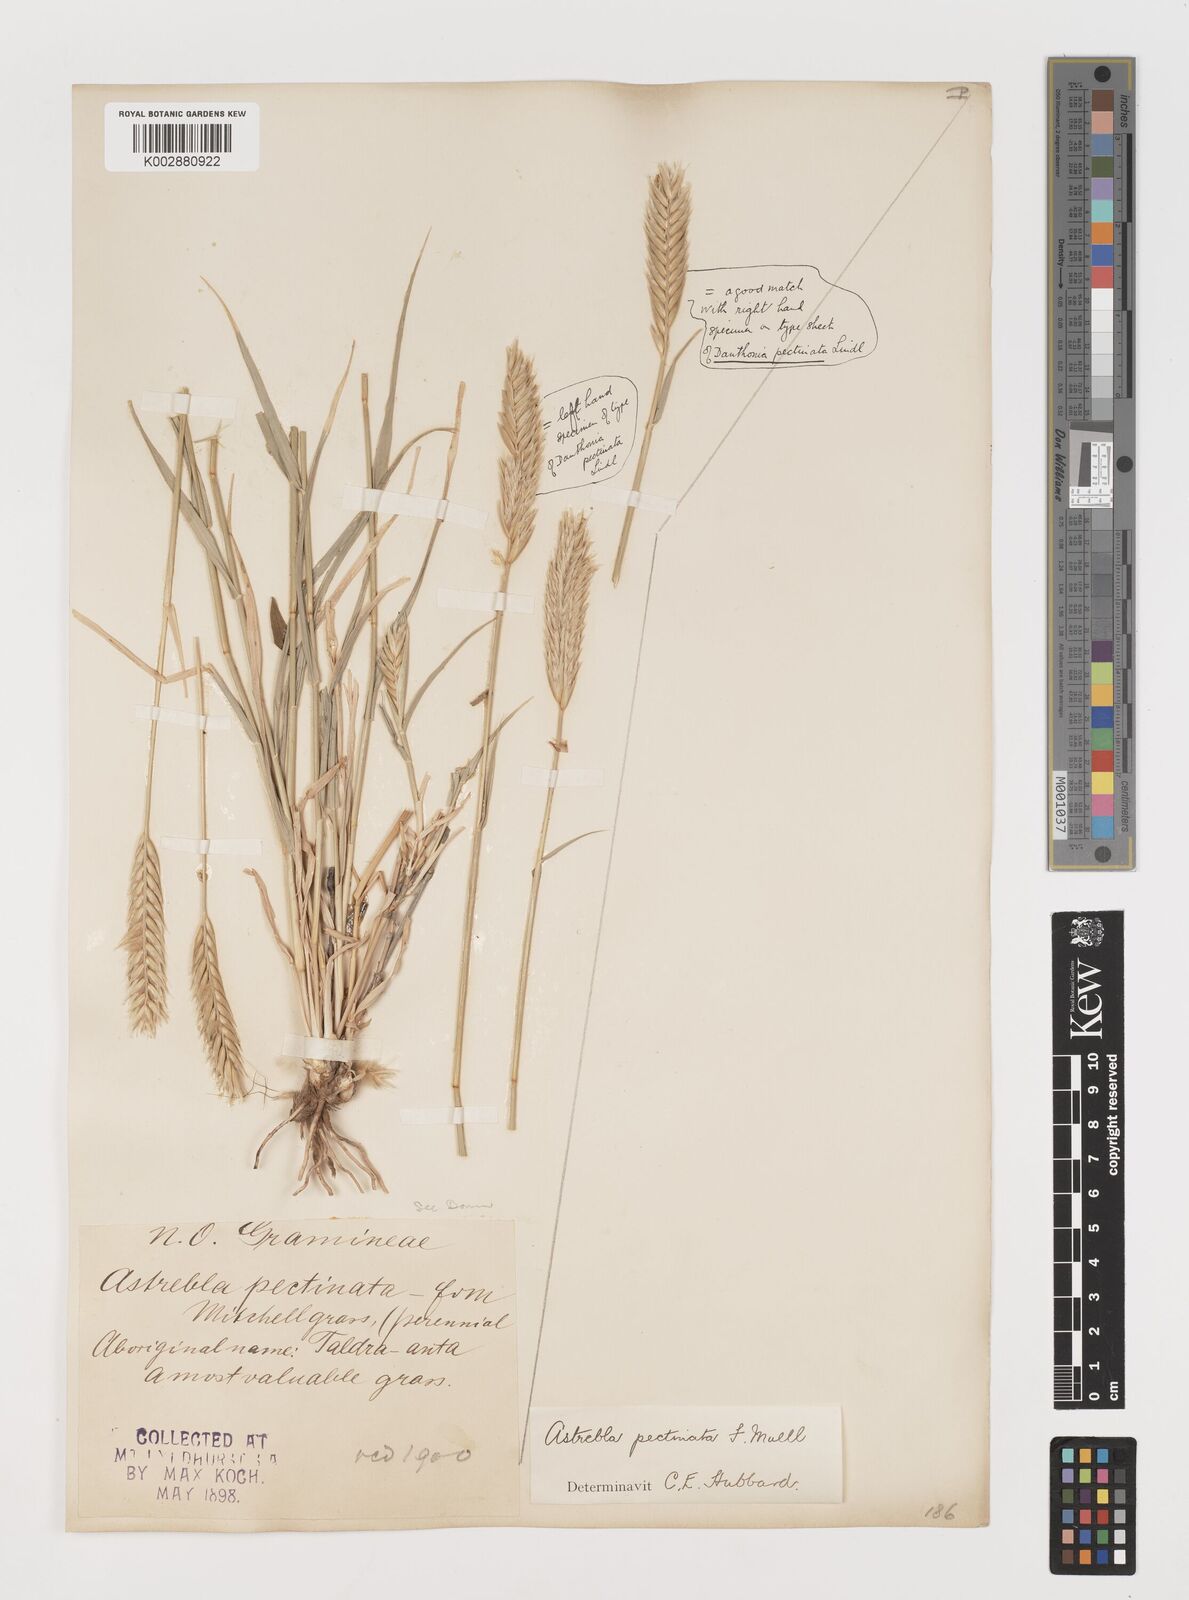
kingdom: Plantae
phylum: Tracheophyta
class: Liliopsida
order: Poales
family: Poaceae
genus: Astrebla
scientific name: Astrebla pectinata
